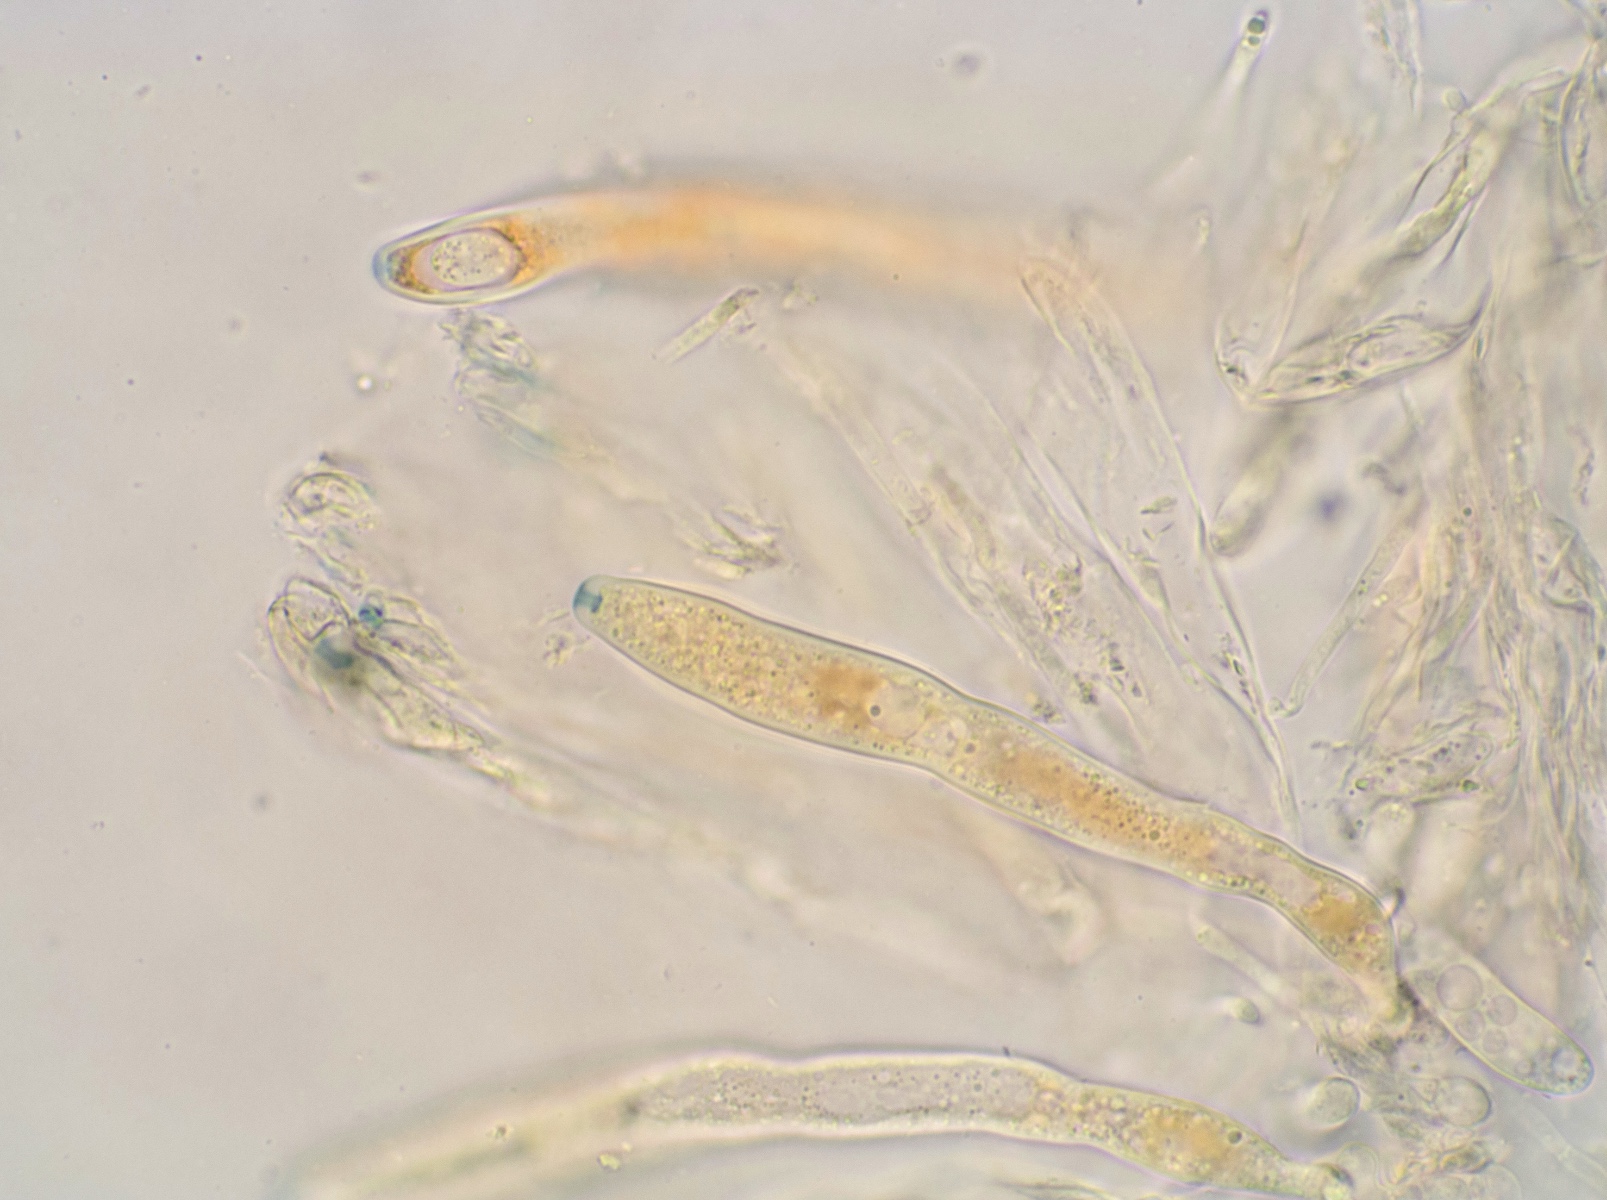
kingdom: Fungi
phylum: Ascomycota
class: Leotiomycetes
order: Helotiales
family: Sclerotiniaceae
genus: Clarireedia
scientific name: Clarireedia
